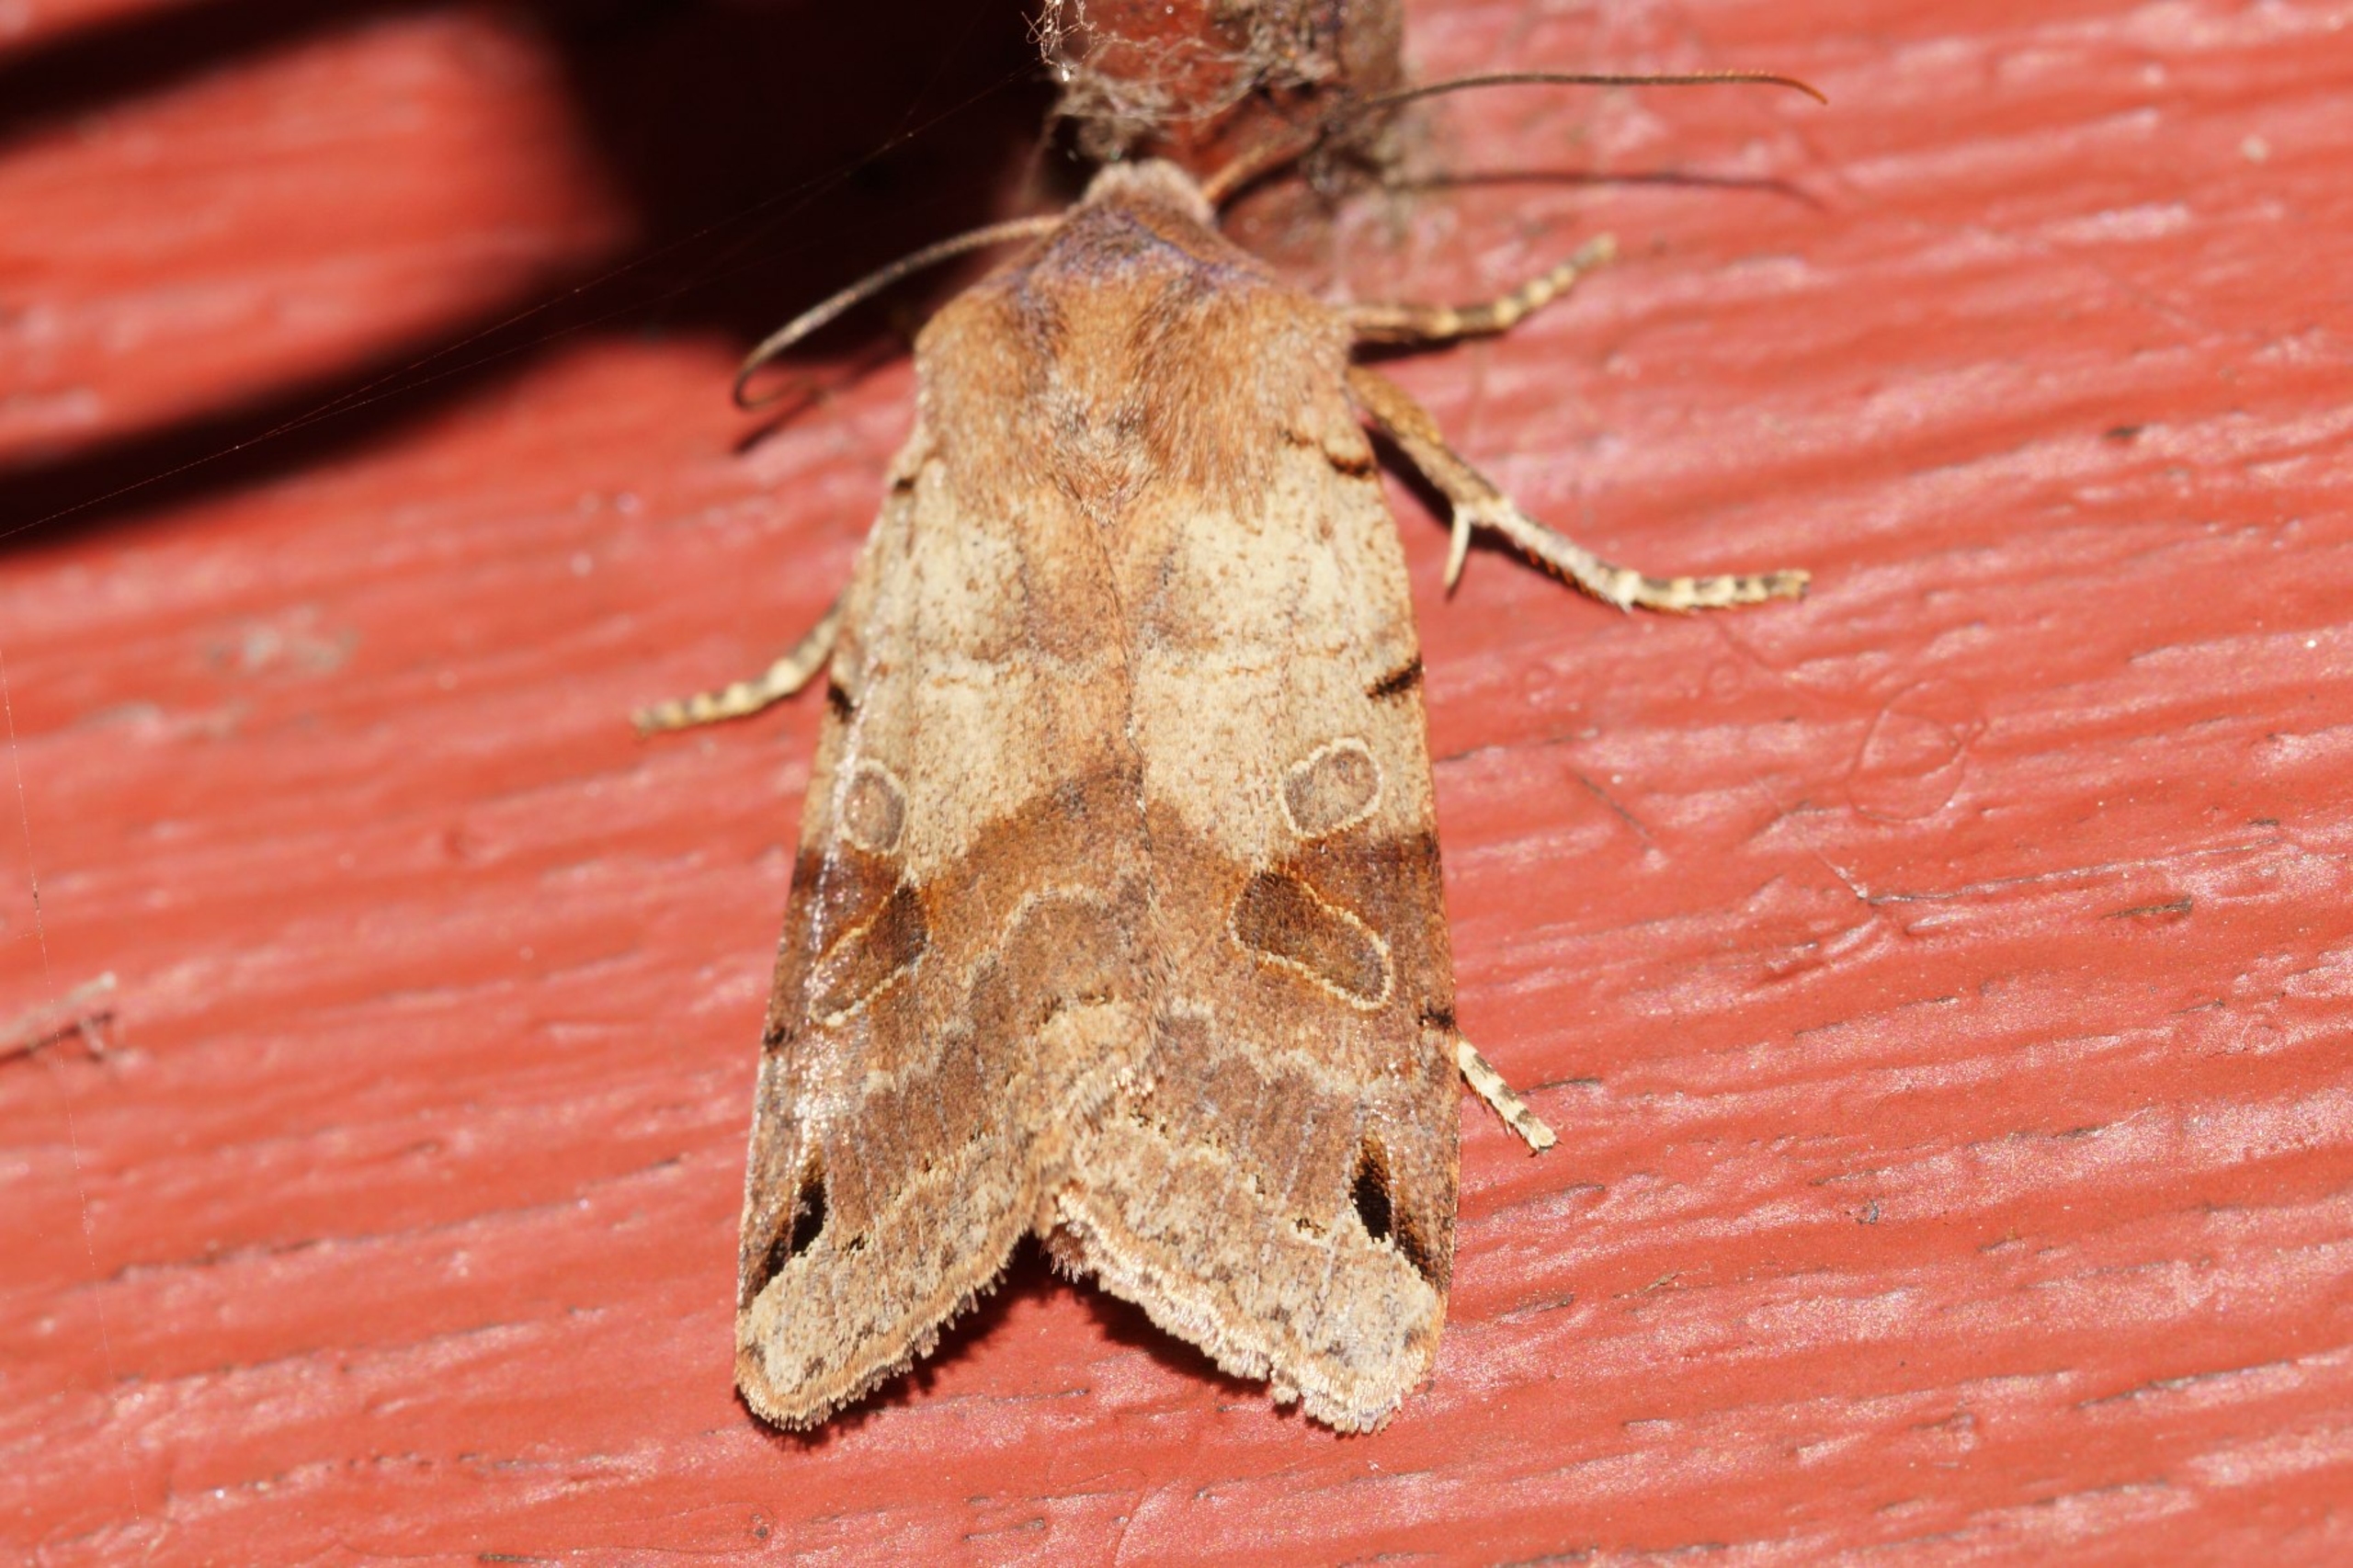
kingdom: Animalia
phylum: Arthropoda
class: Insecta
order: Lepidoptera
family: Noctuidae
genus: Agrochola
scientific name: Agrochola litura
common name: Kantplettet jordfarveugle
